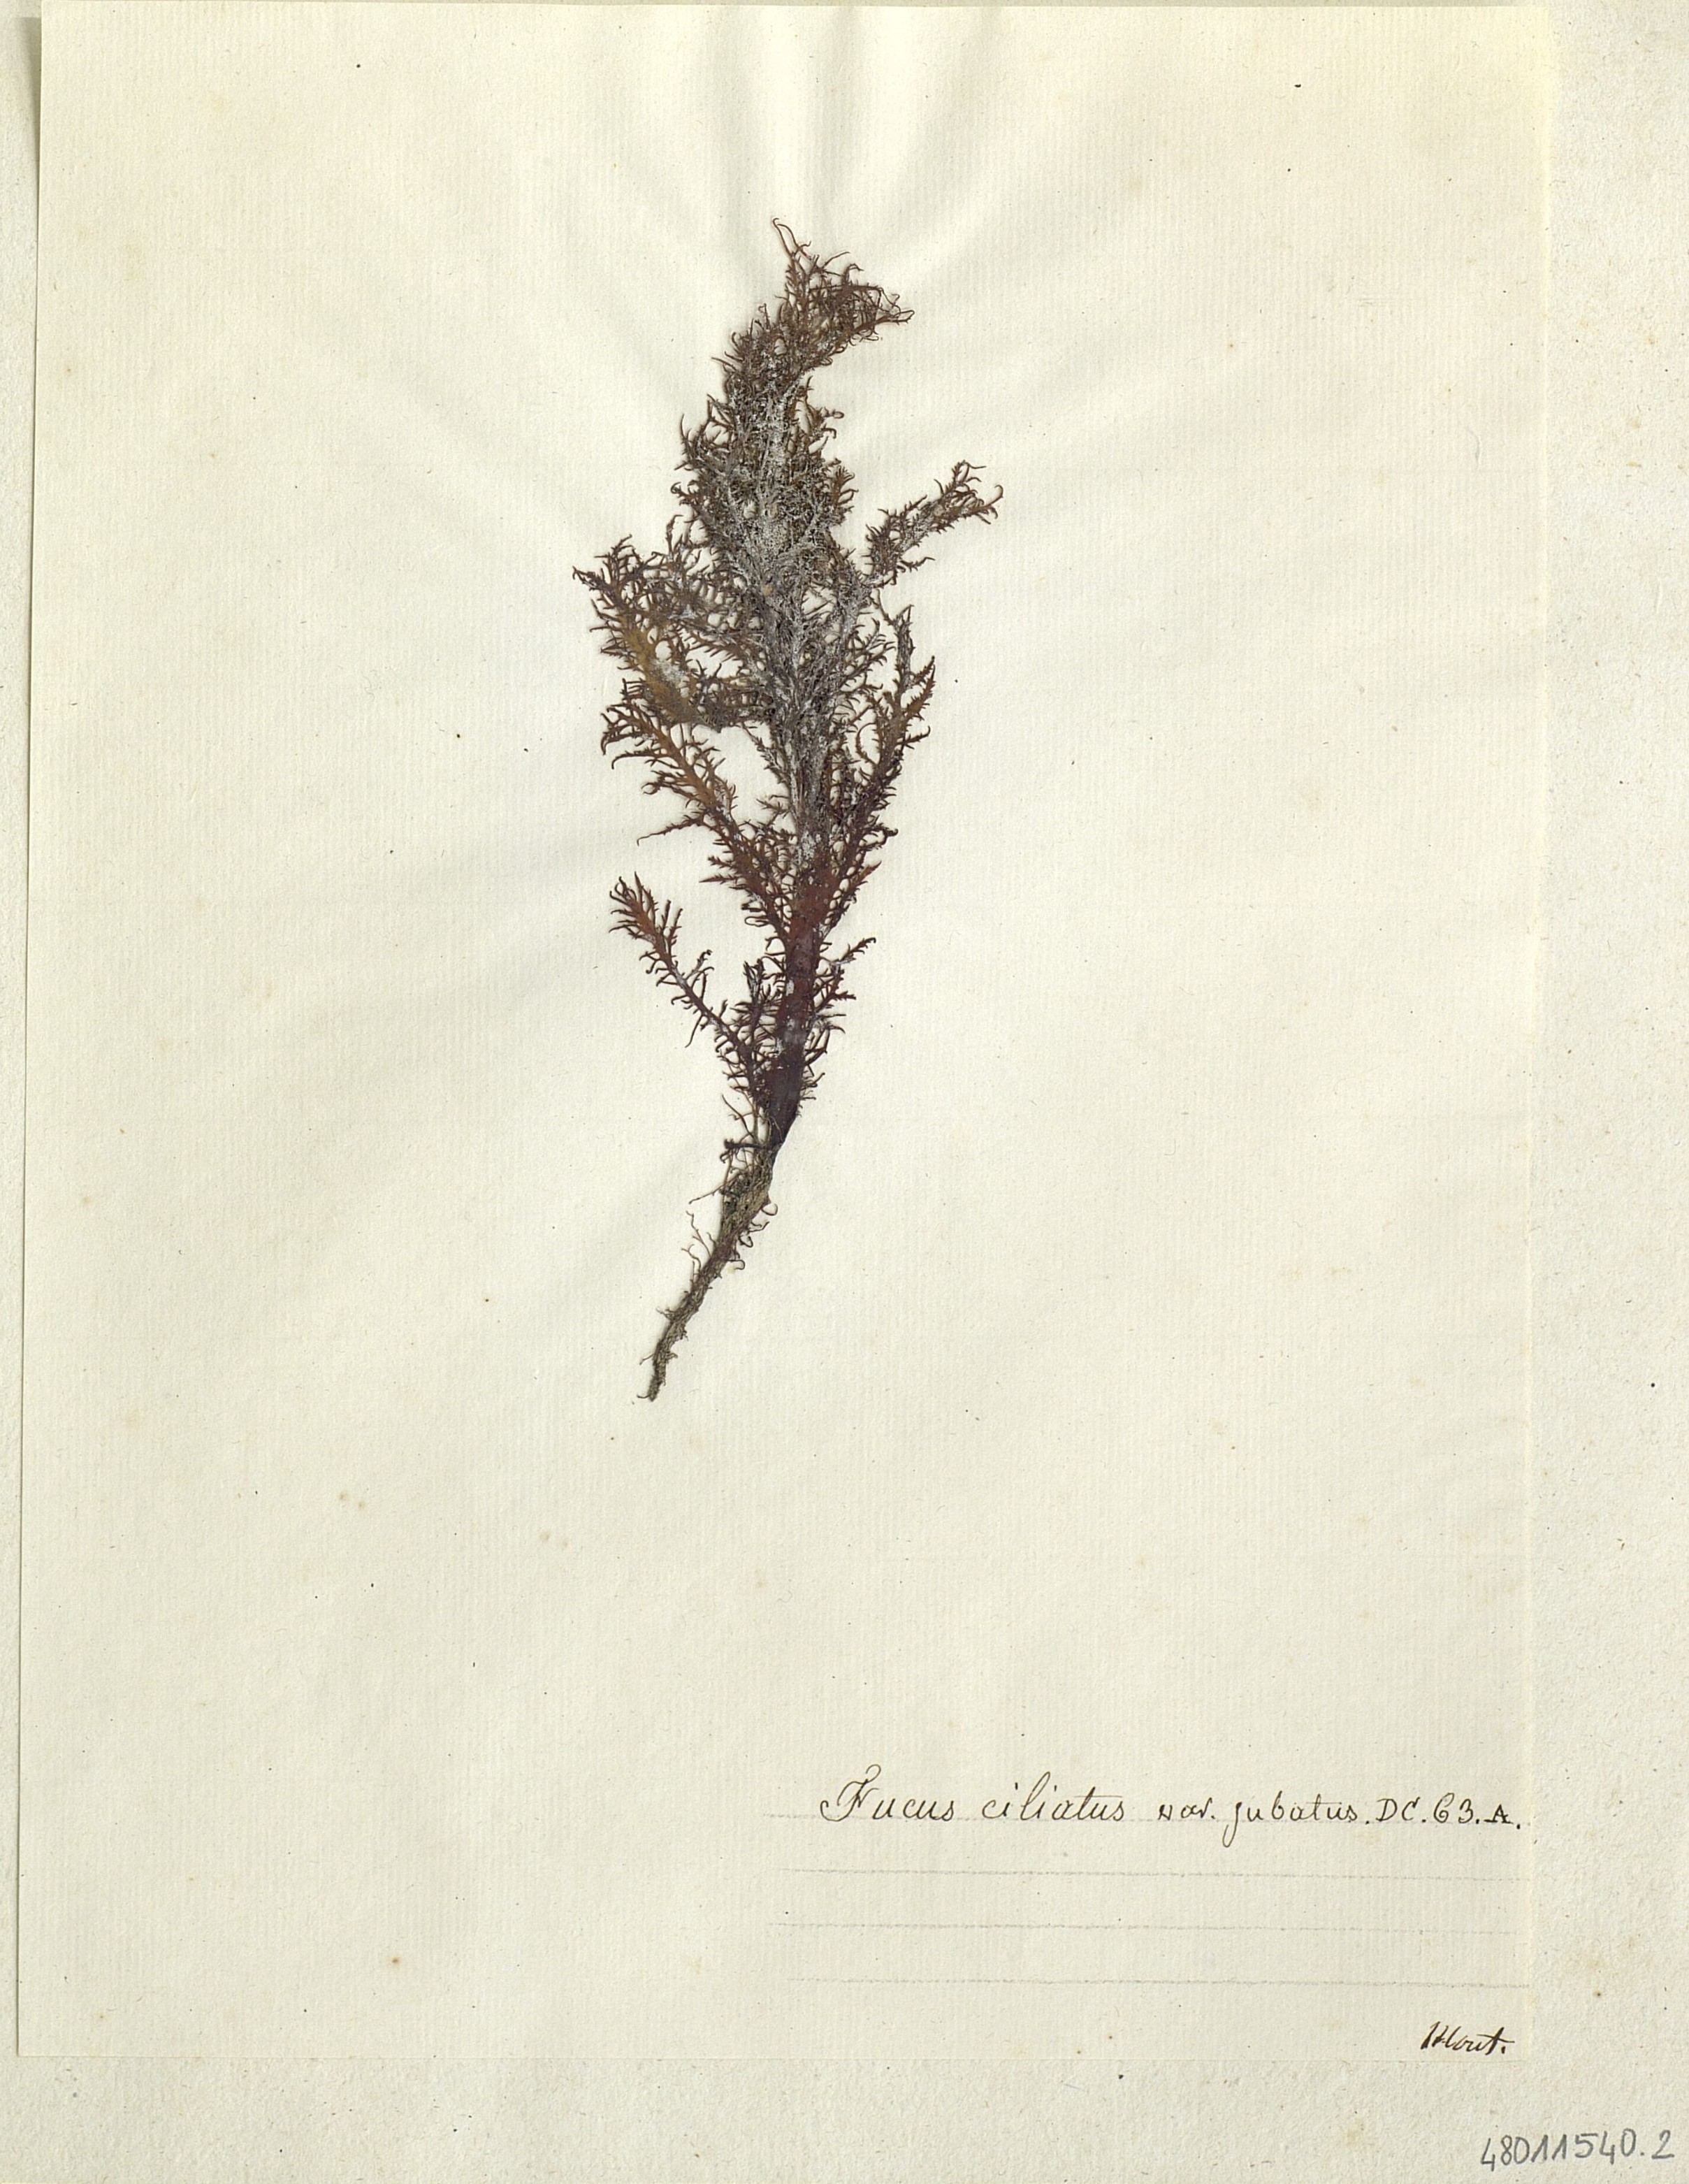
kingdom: Chromista
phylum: Ochrophyta
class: Phaeophyceae
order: Fucales
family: Fucaceae
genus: Fucus
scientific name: Fucus
